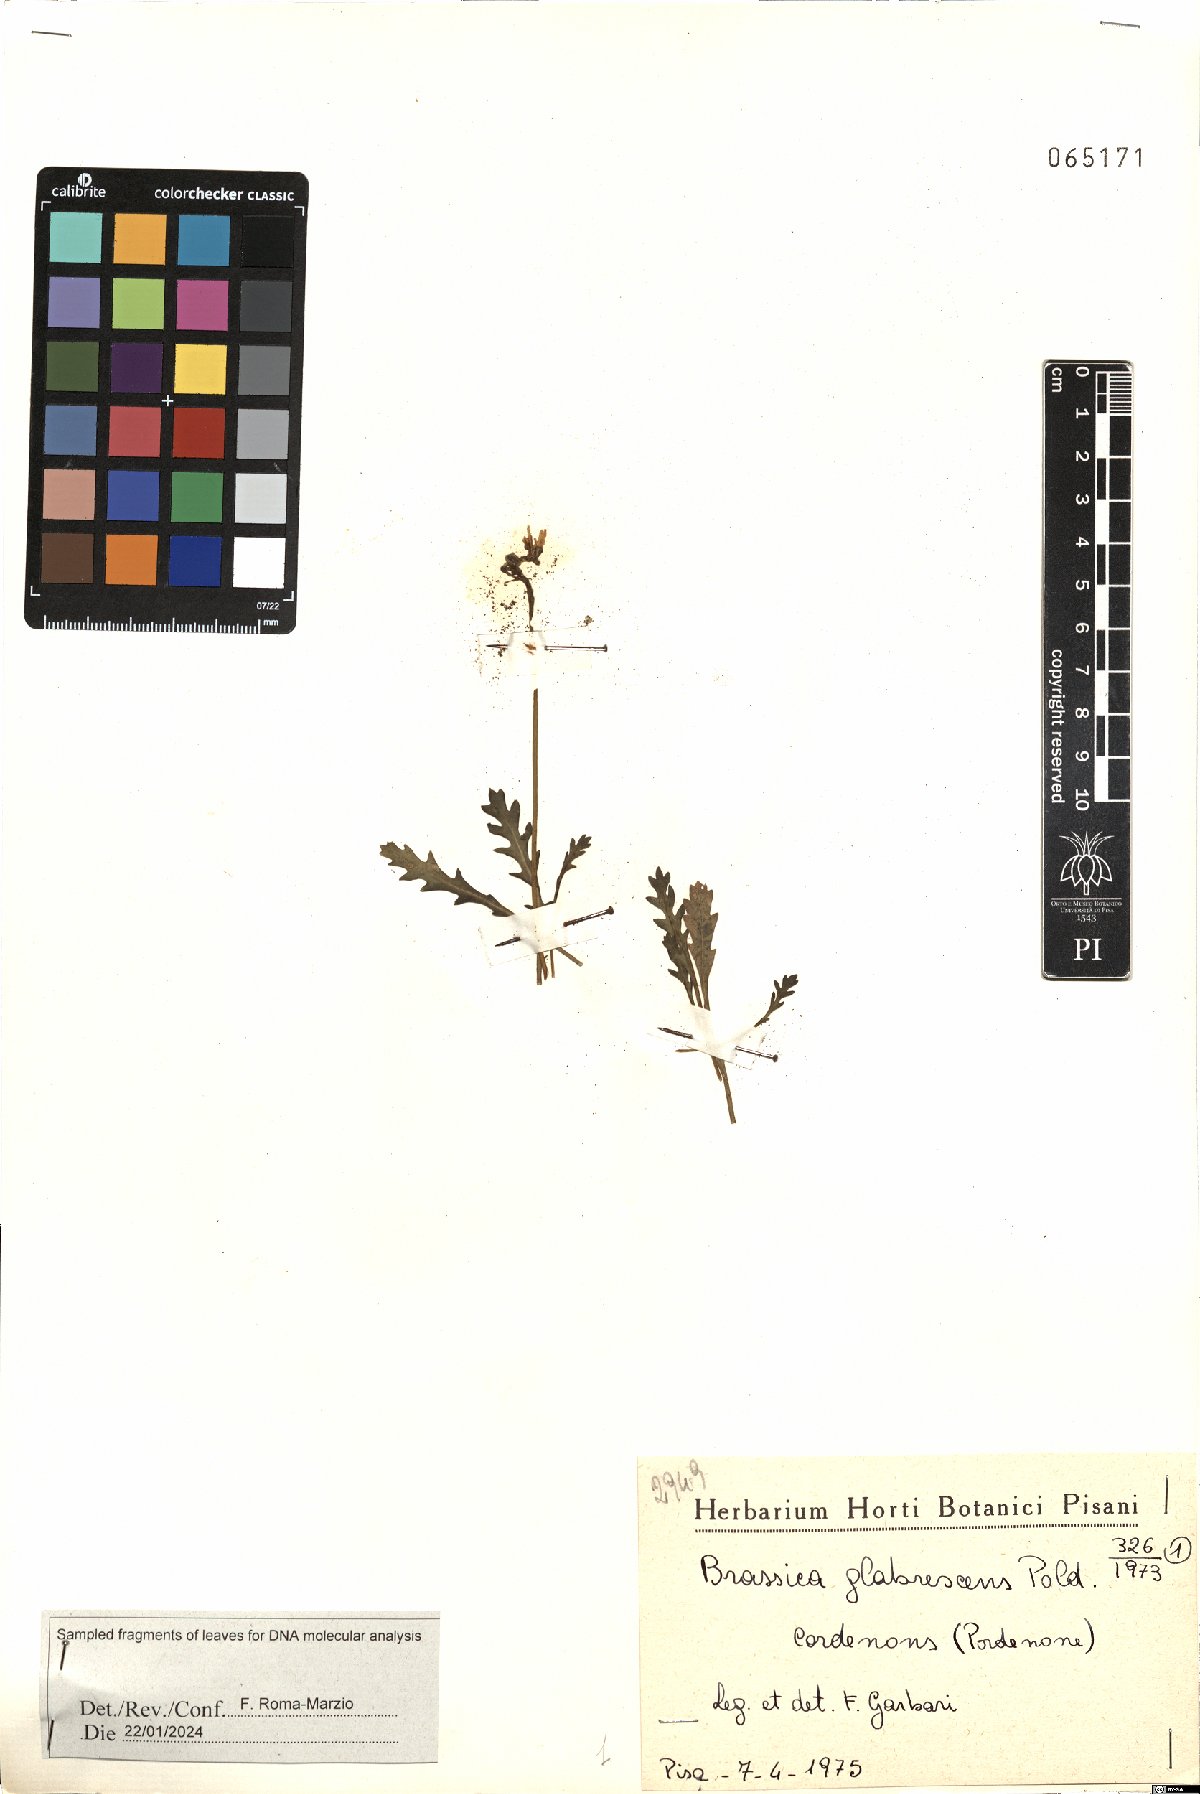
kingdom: Plantae
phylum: Tracheophyta
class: Magnoliopsida
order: Brassicales
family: Brassicaceae
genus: Brassica
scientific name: Brassica repanda
